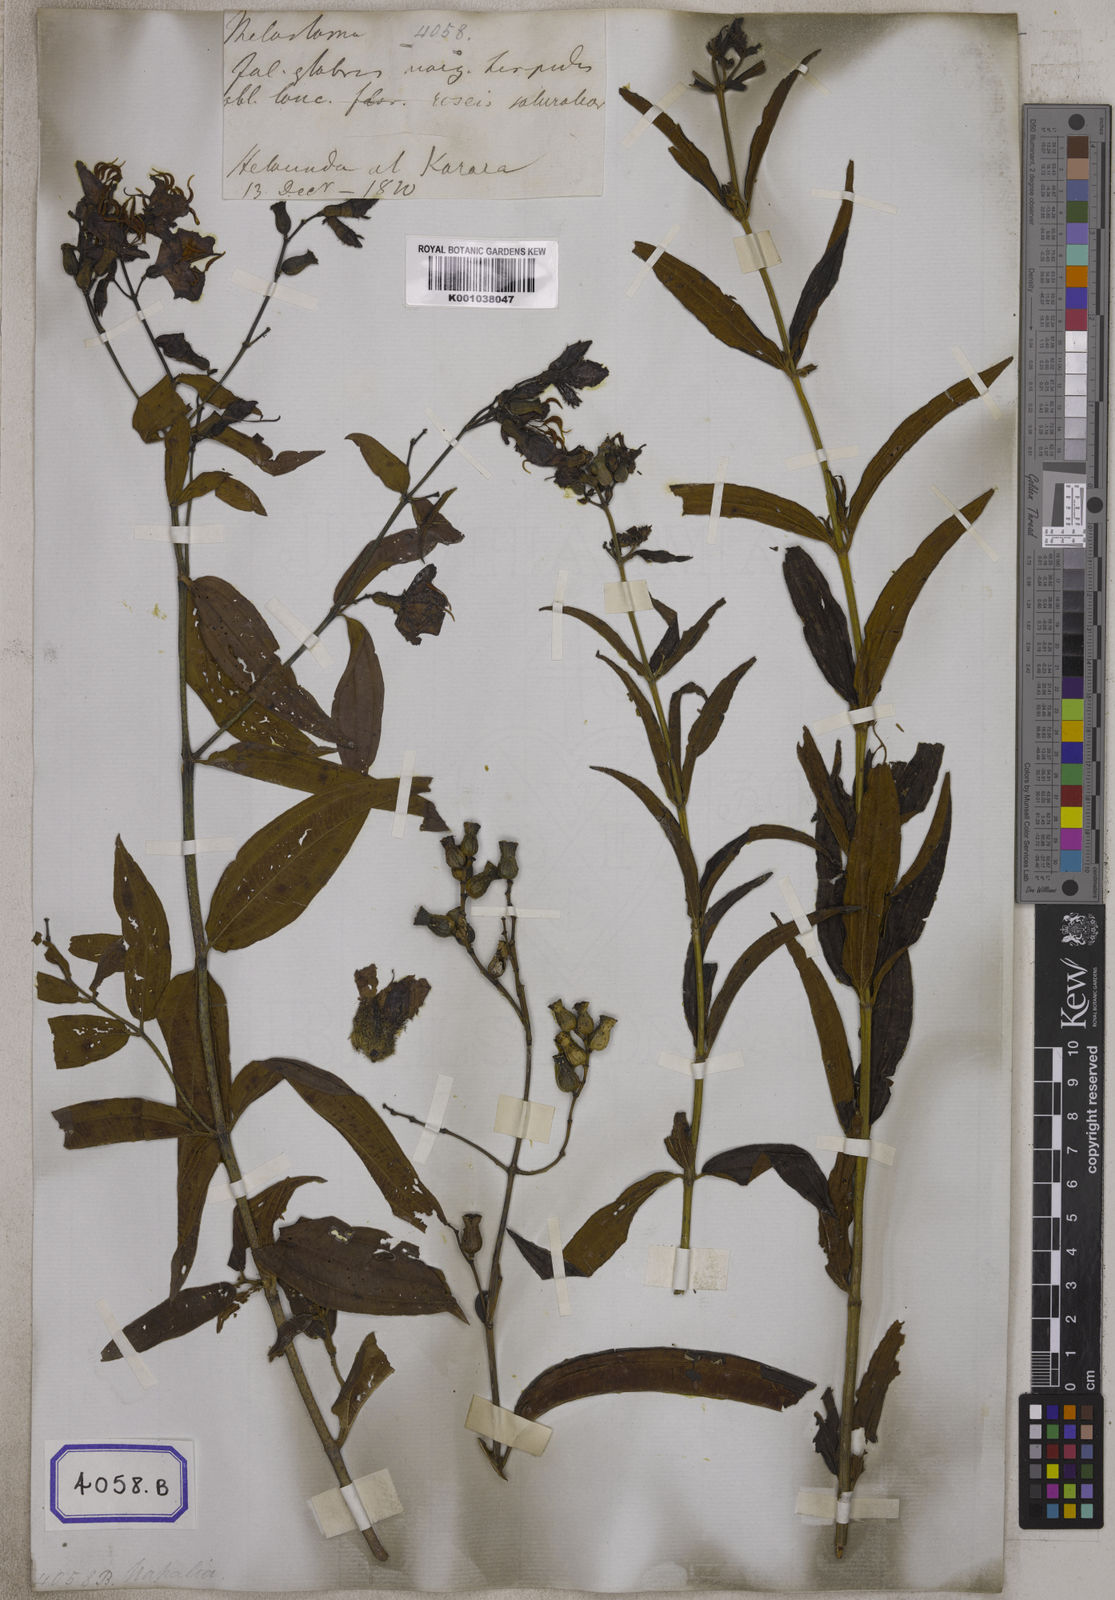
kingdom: Plantae
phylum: Tracheophyta
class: Magnoliopsida
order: Myrtales
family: Melastomataceae
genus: Osbeckia
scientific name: Osbeckia rostrata
